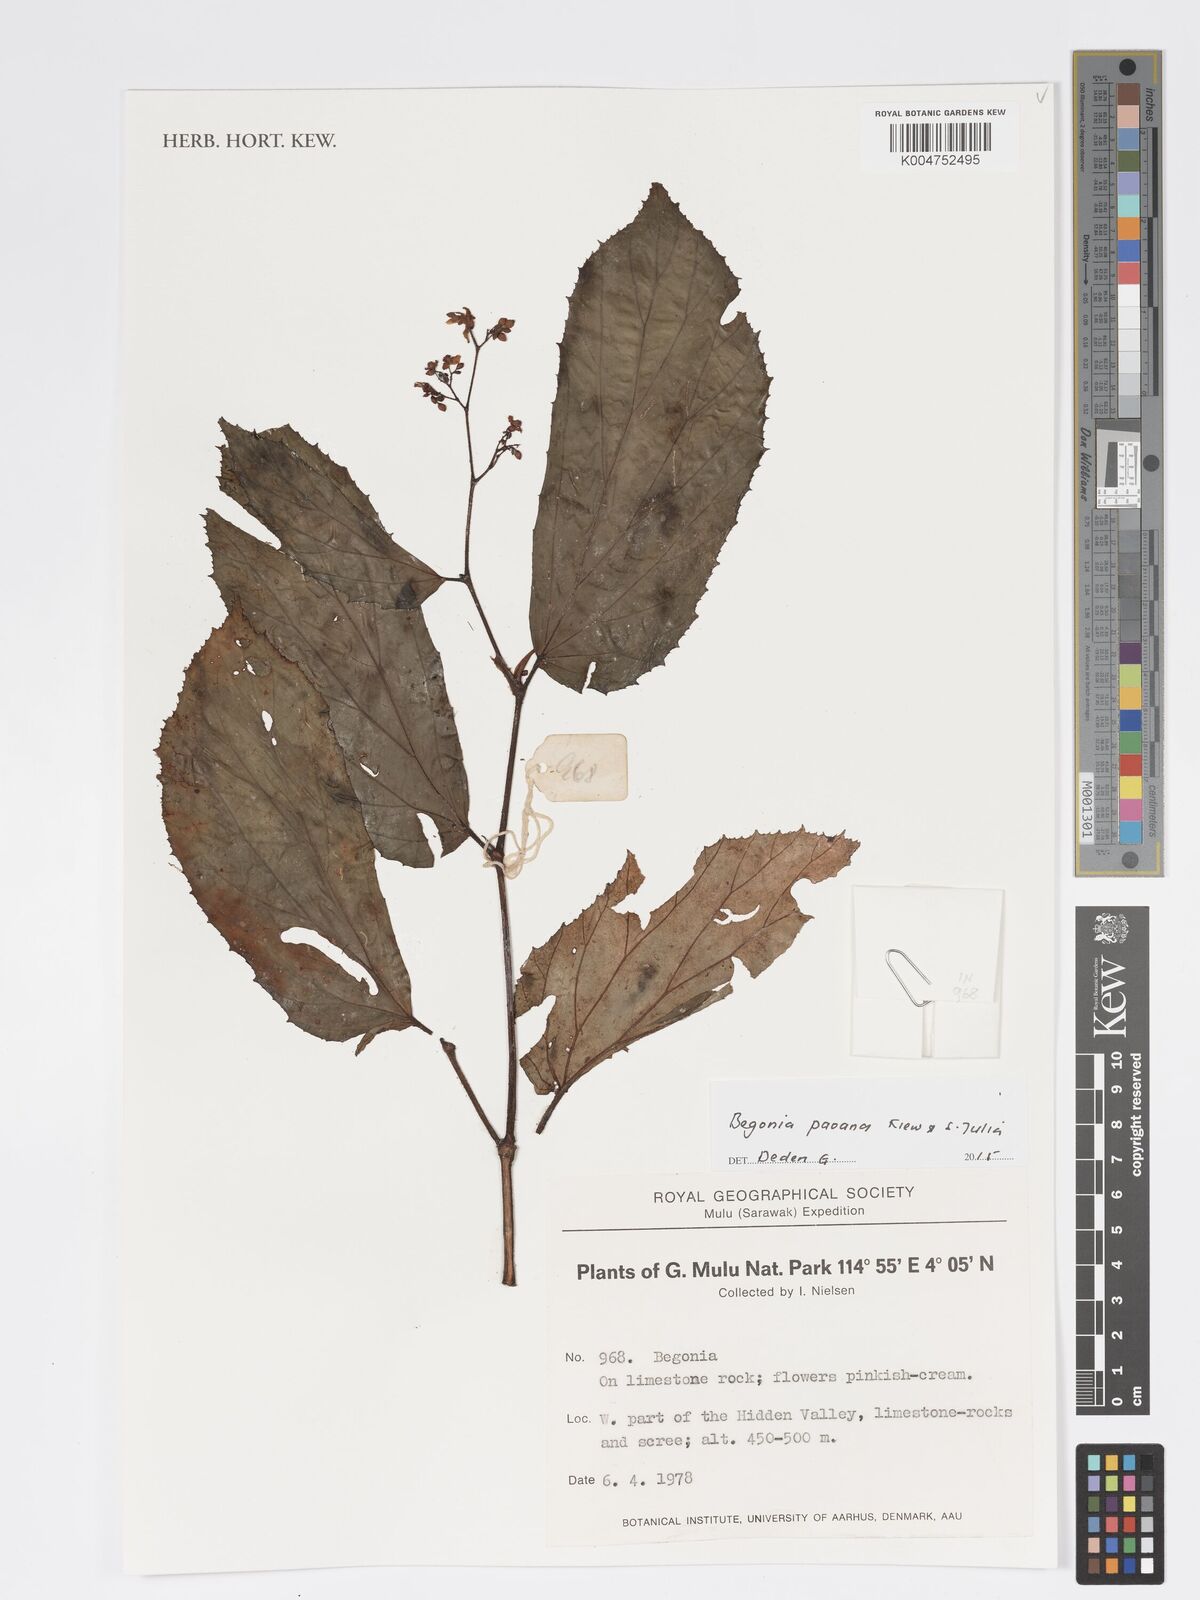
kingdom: Plantae
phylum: Tracheophyta
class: Magnoliopsida
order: Cucurbitales
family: Begoniaceae
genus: Begonia
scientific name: Begonia paoana
